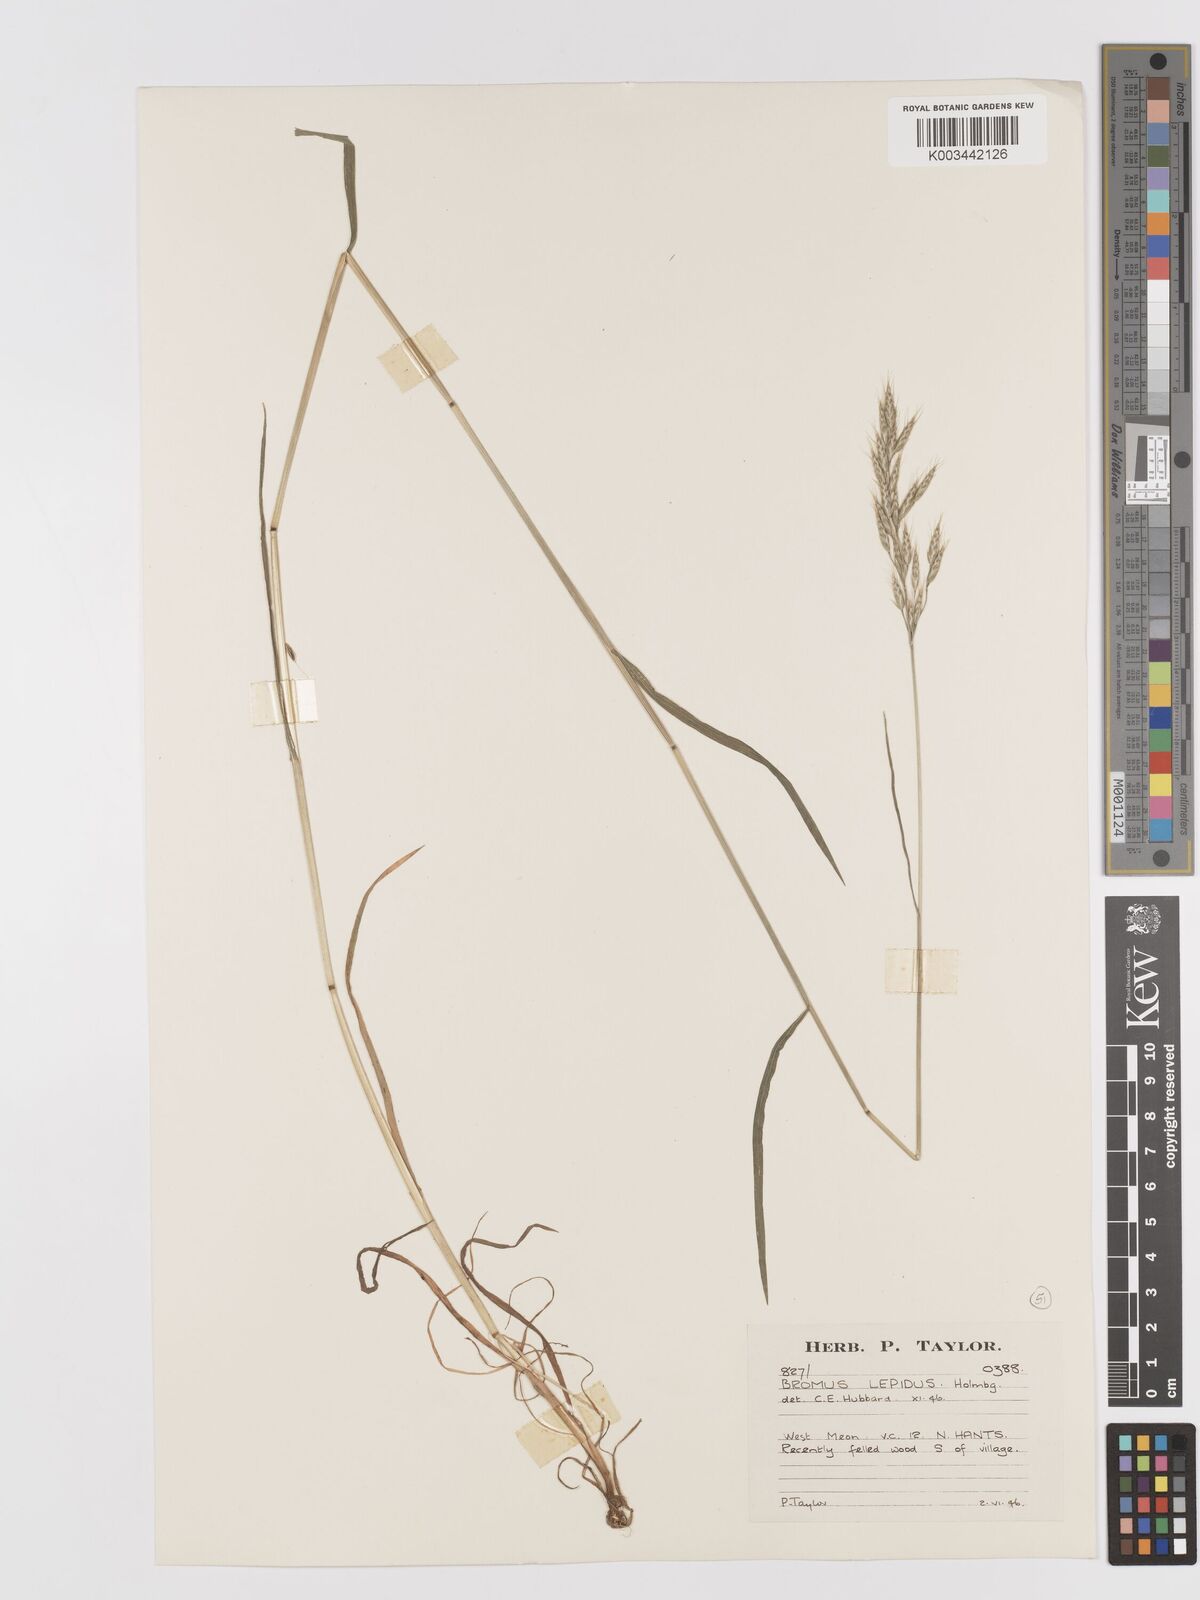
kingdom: Plantae
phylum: Tracheophyta
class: Liliopsida
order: Poales
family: Poaceae
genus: Bromus
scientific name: Bromus lepidus
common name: Slender soft-brome
